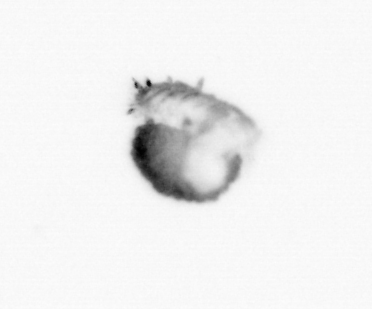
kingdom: Animalia
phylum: Annelida
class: Polychaeta
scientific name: Polychaeta
